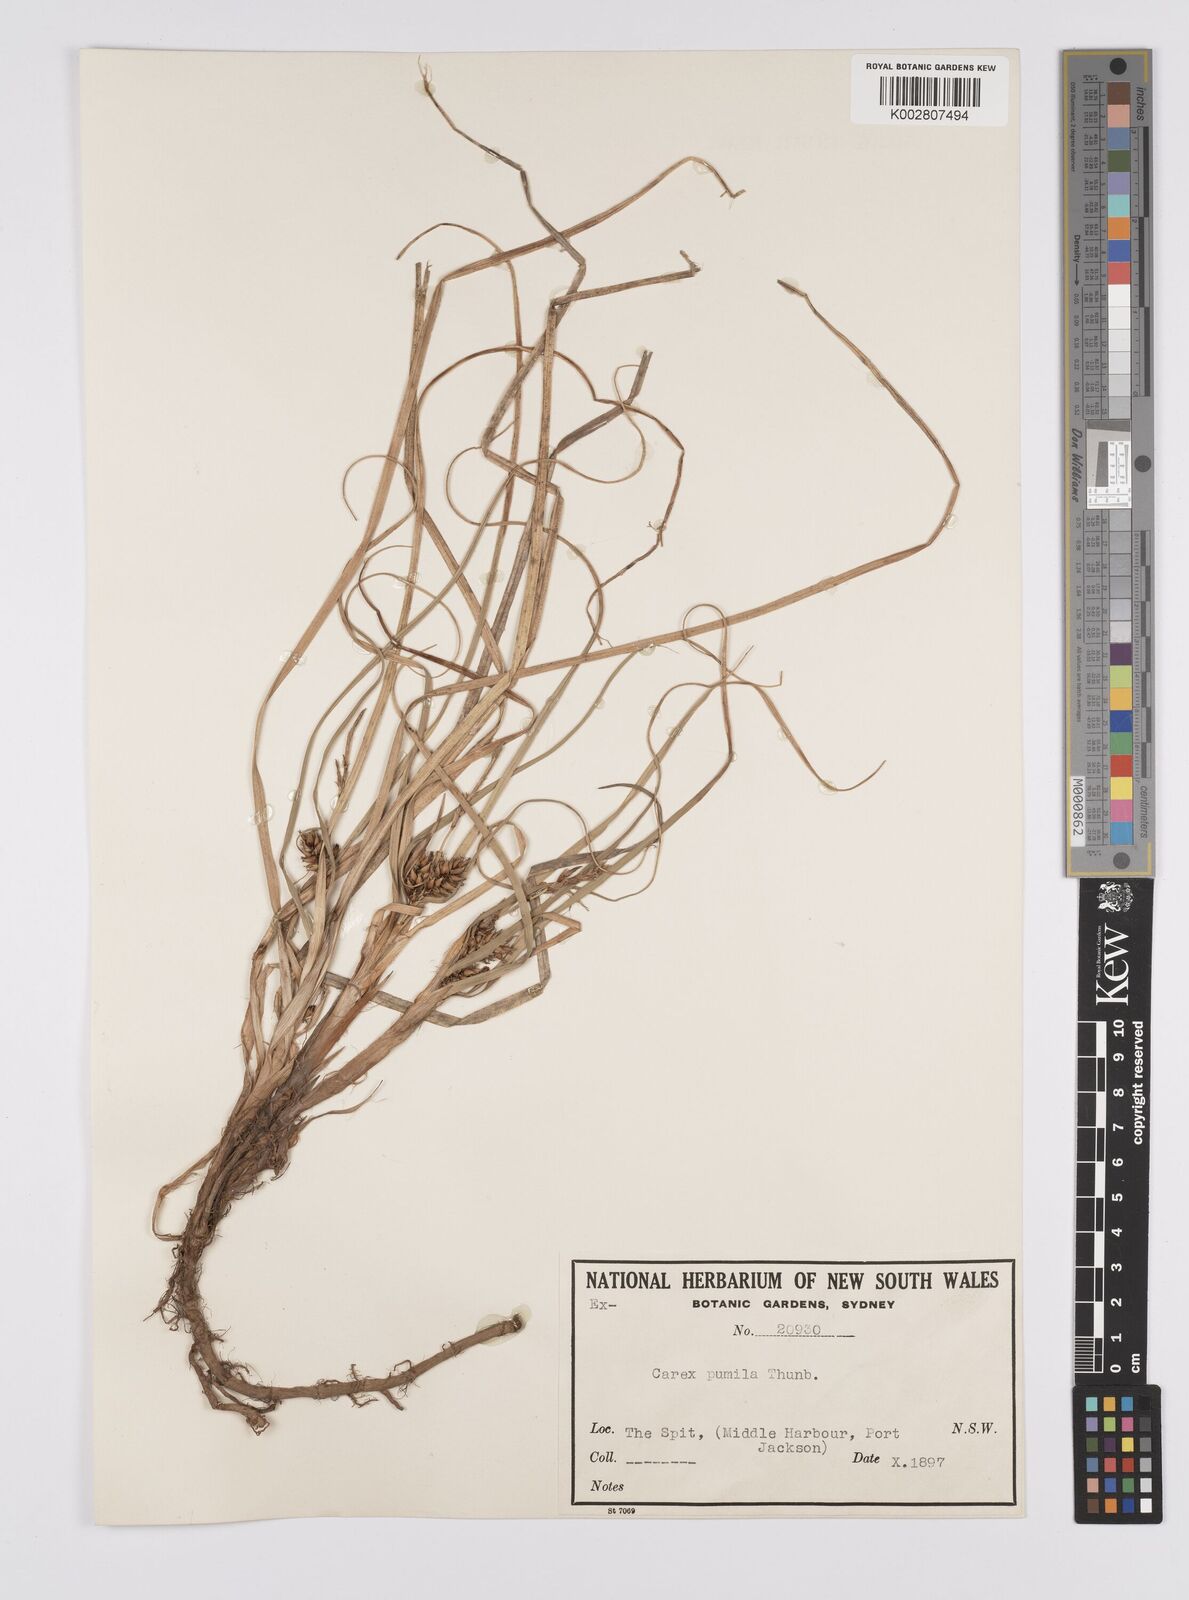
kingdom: Plantae
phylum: Tracheophyta
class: Liliopsida
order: Poales
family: Cyperaceae
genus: Carex
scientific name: Carex pumila
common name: Dwarf sedge
